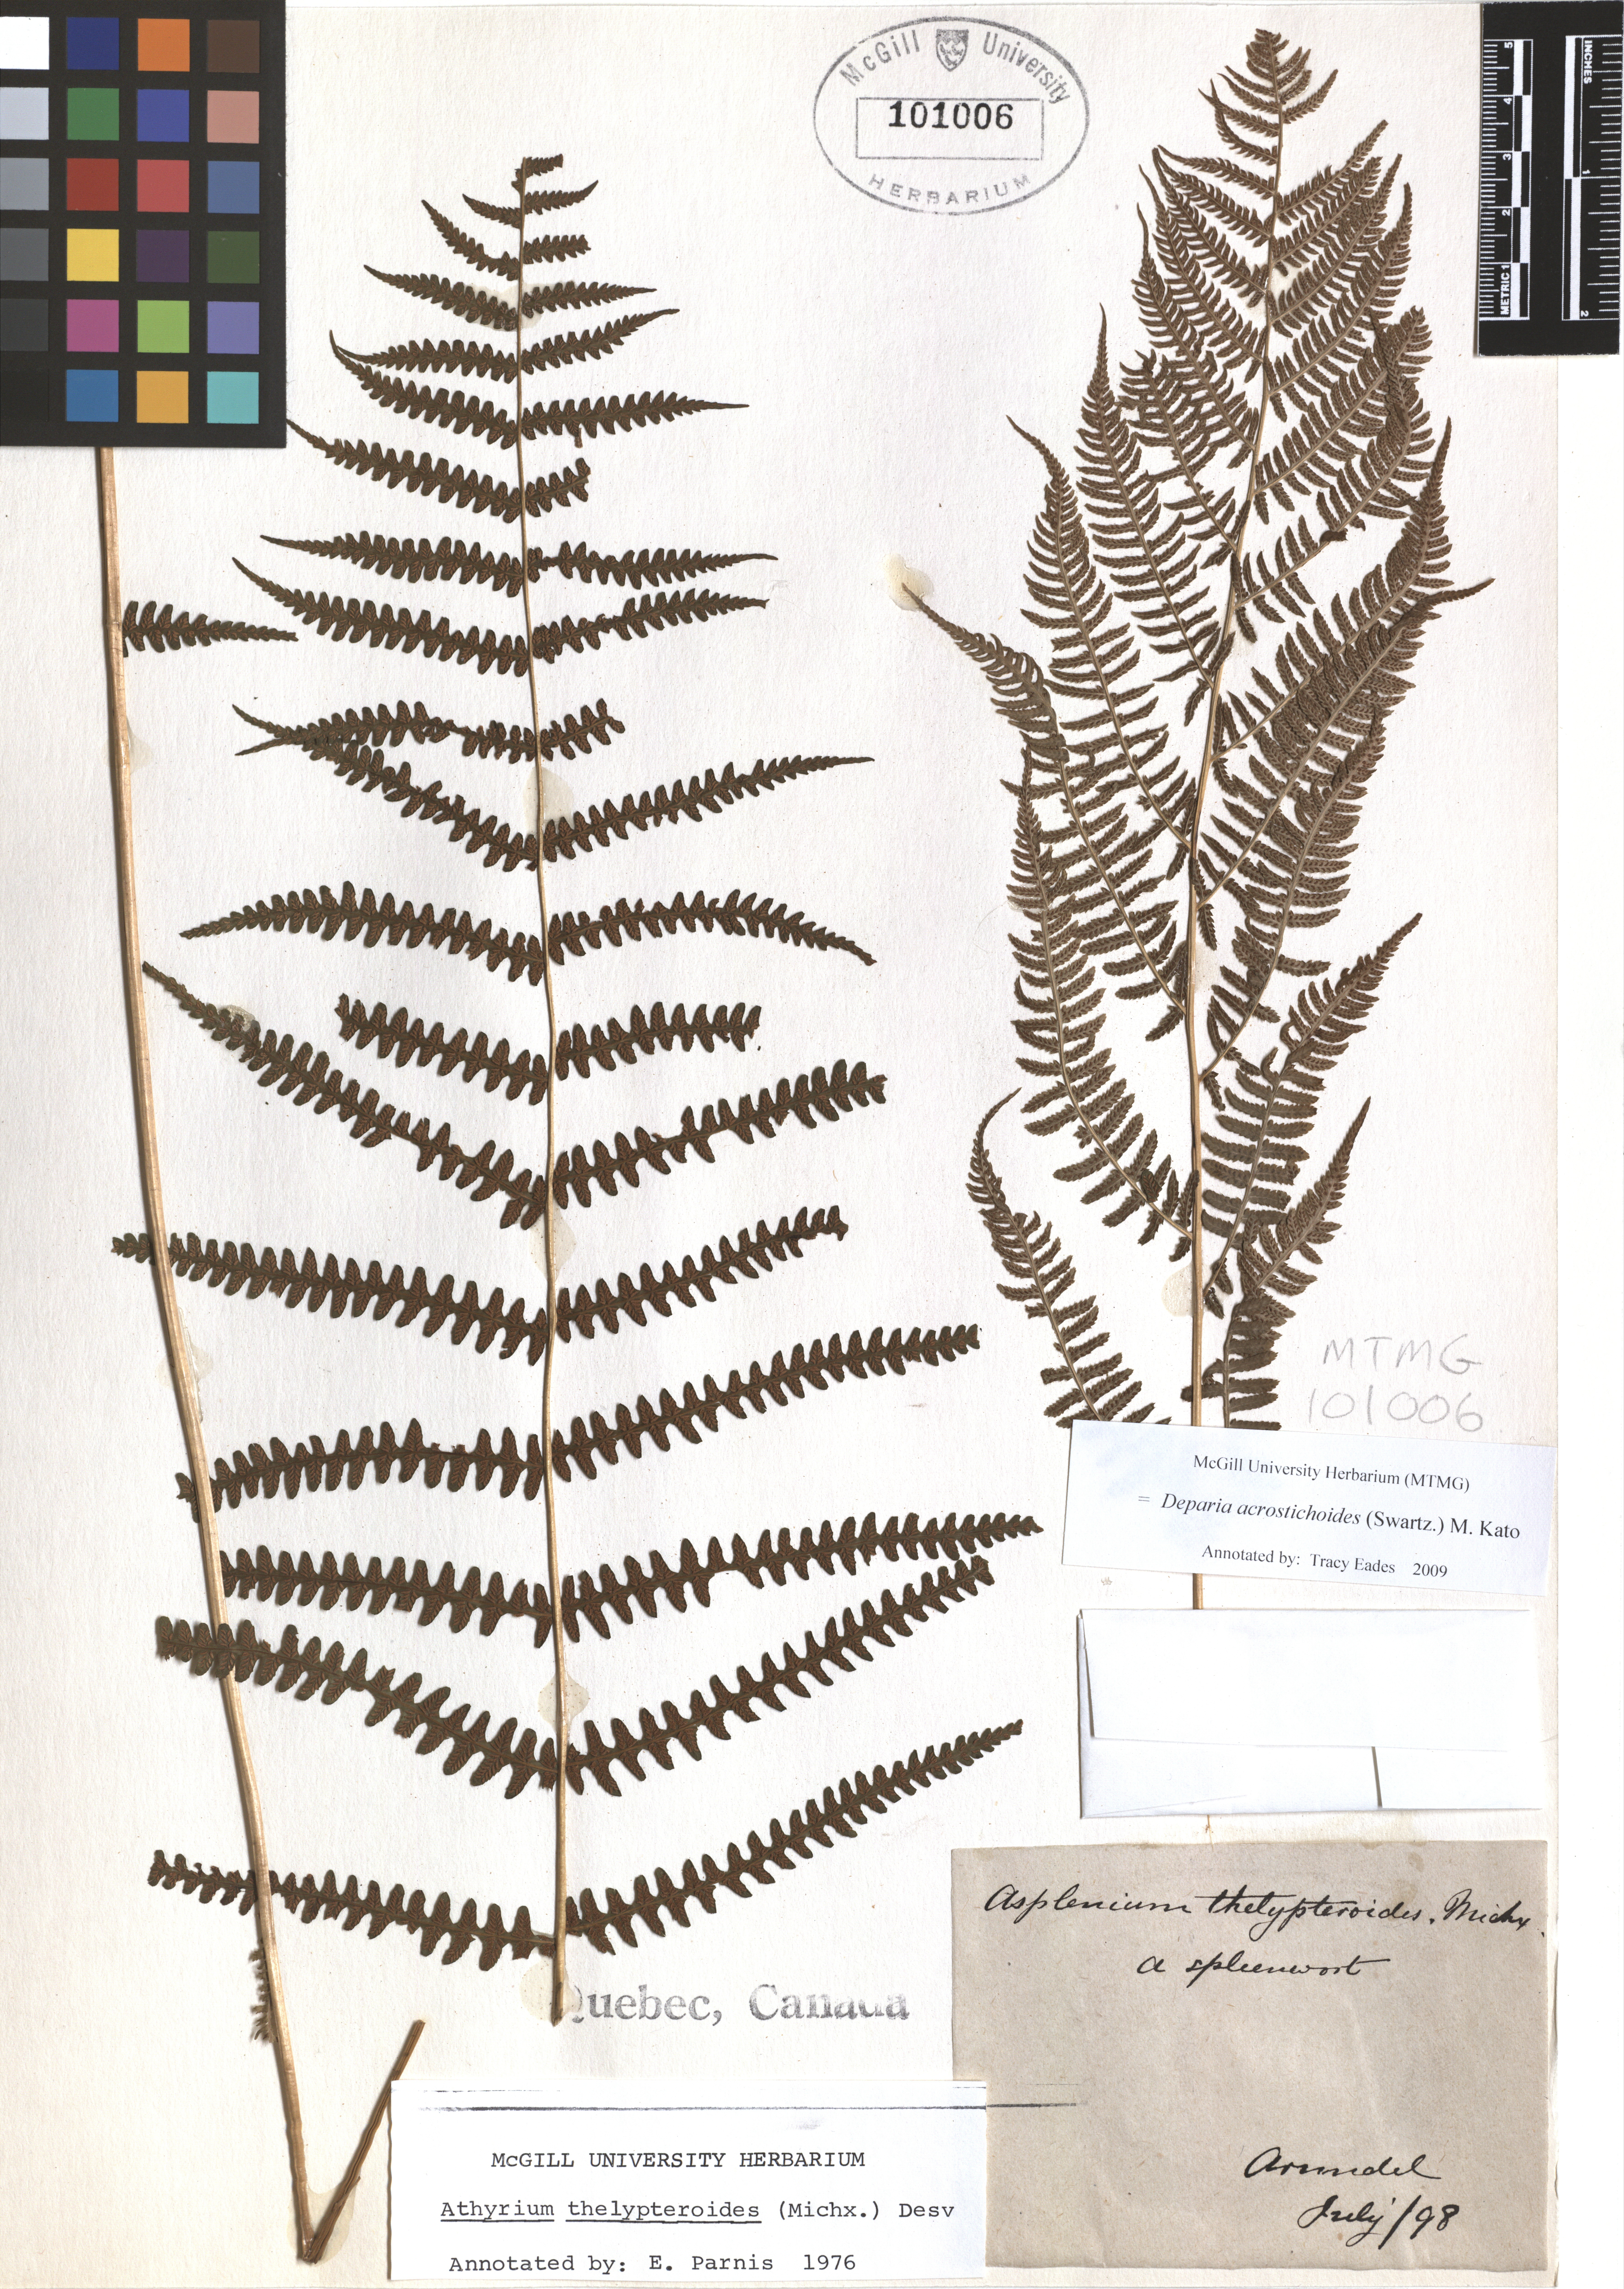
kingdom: Plantae
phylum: Tracheophyta
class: Polypodiopsida
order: Polypodiales
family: Athyriaceae
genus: Deparia
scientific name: Deparia acrostichoides
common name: Silver false spleenwort
